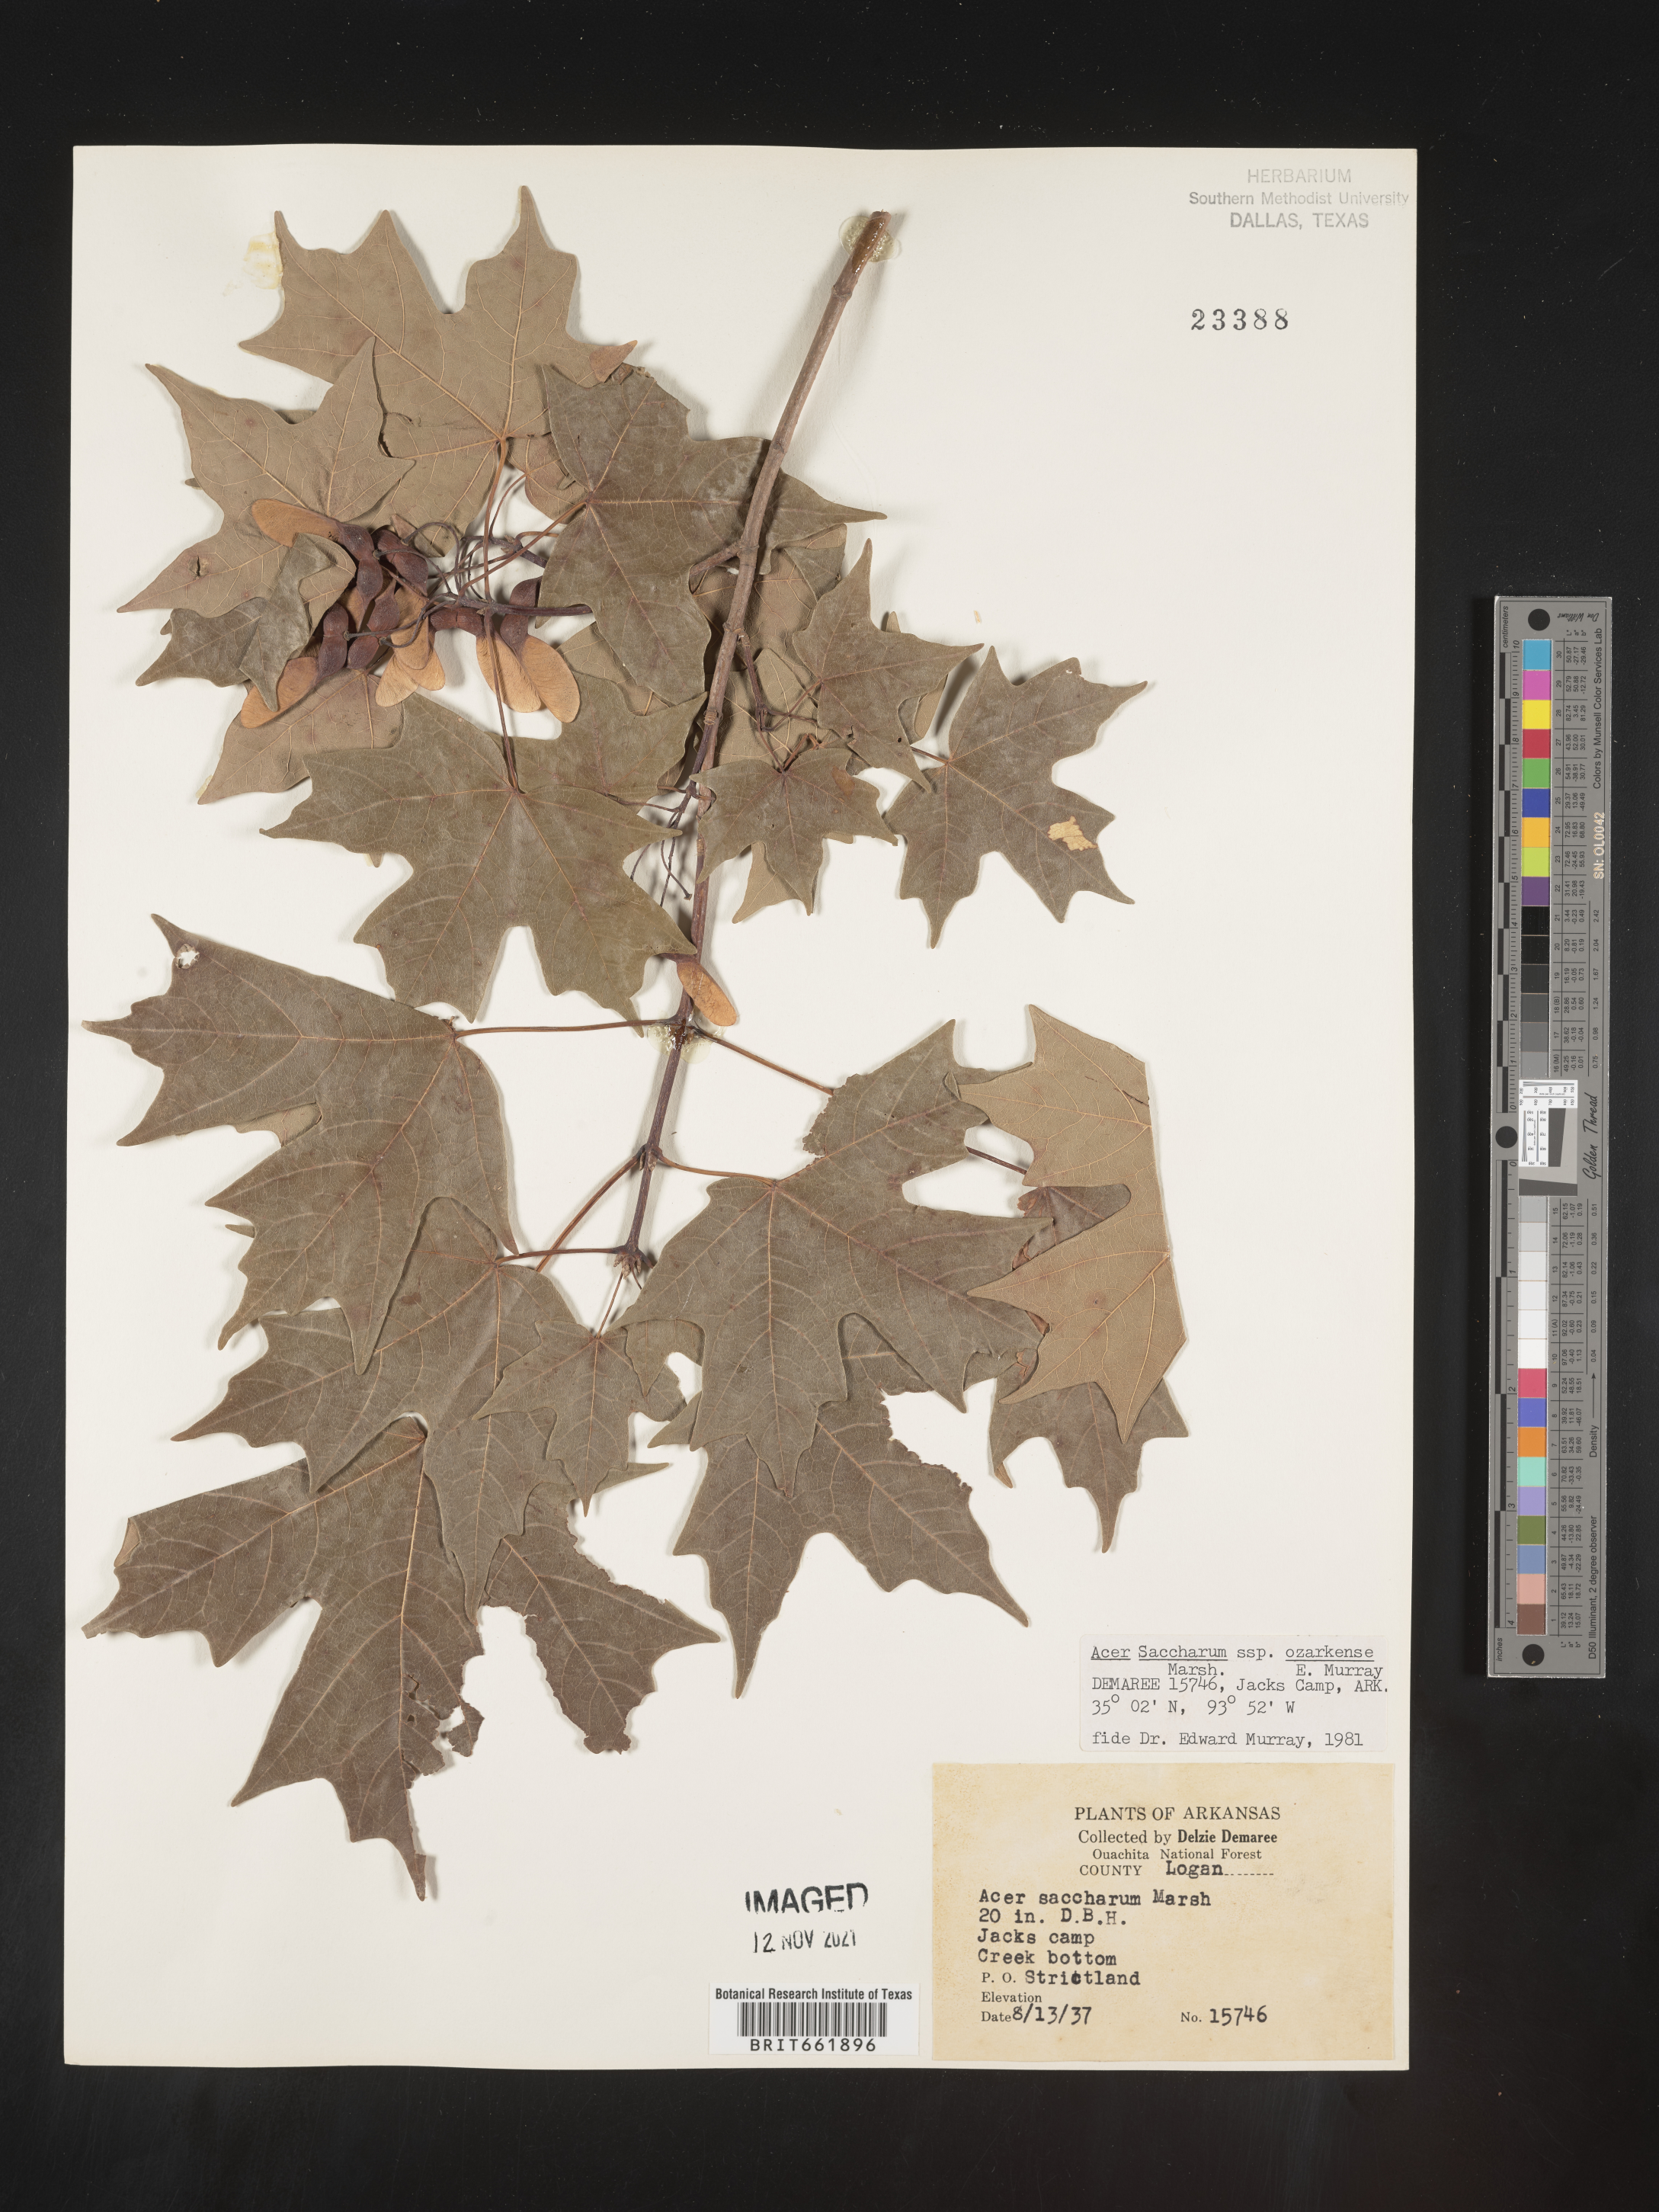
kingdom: Plantae
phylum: Tracheophyta
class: Magnoliopsida
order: Sapindales
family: Sapindaceae
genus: Acer
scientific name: Acer saccharum
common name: Sugar maple
